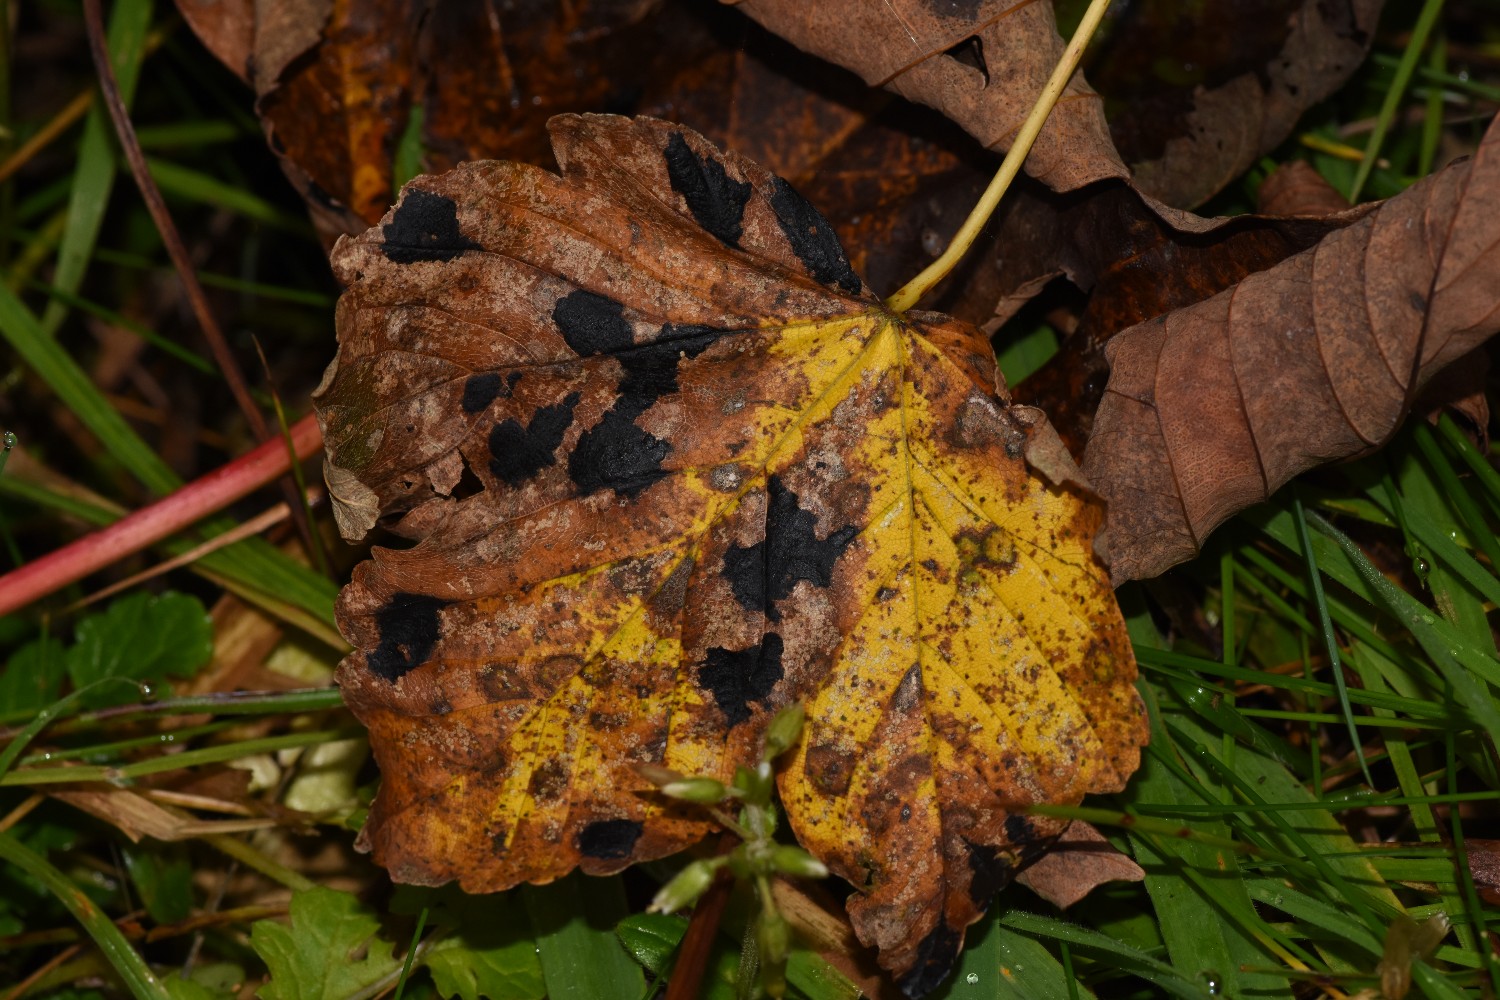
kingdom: Fungi
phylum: Ascomycota
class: Leotiomycetes
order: Rhytismatales
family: Rhytismataceae
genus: Rhytisma
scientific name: Rhytisma acerinum
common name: ahorn-rynkeplet
